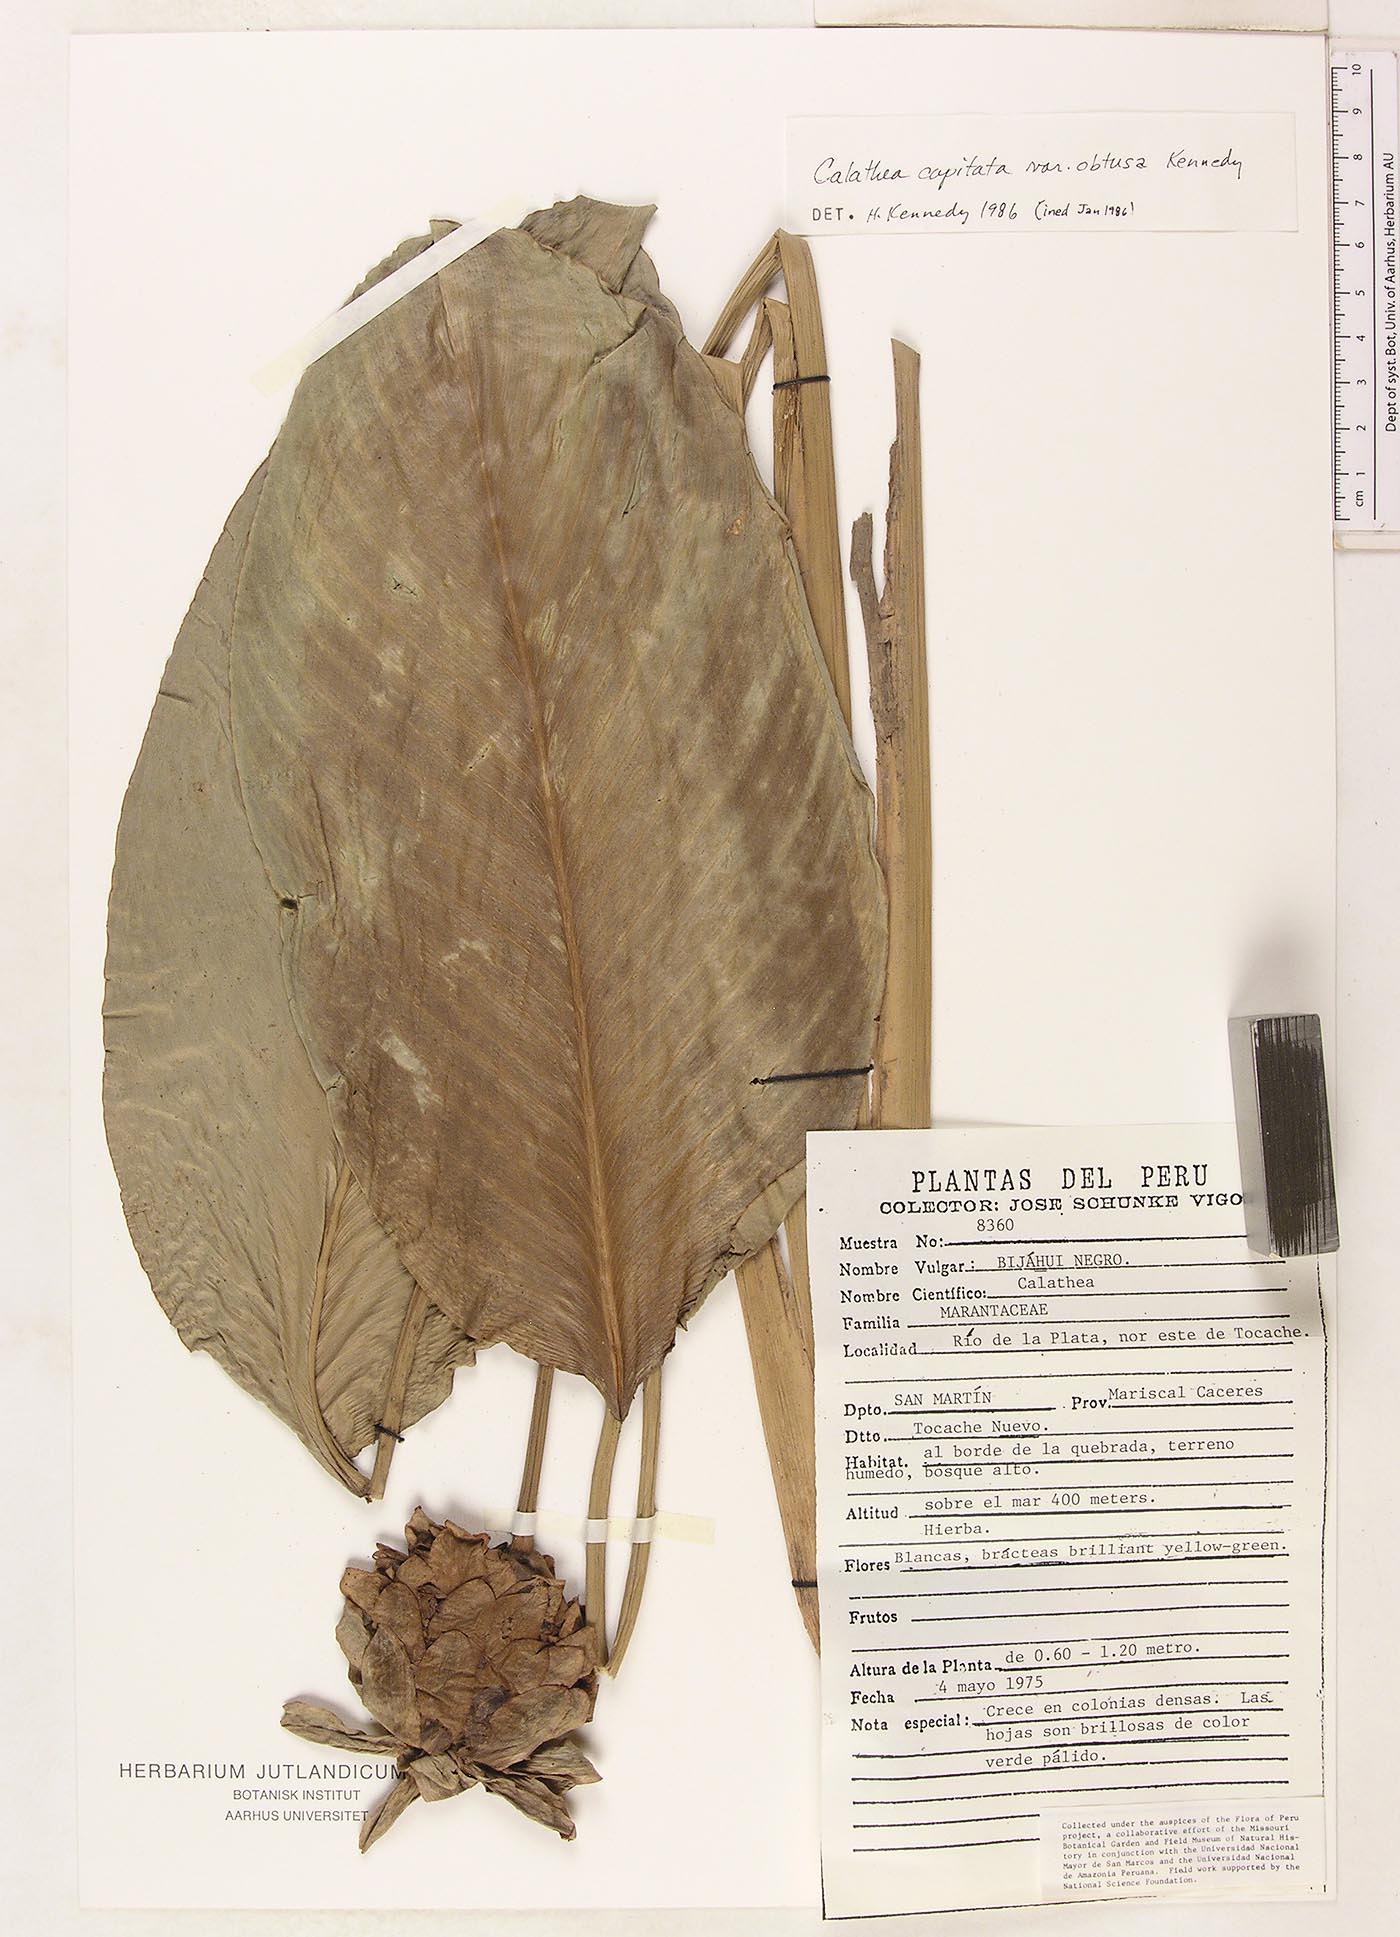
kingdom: Plantae
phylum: Tracheophyta
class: Liliopsida
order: Zingiberales
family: Marantaceae
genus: Goeppertia
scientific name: Goeppertia capitata
